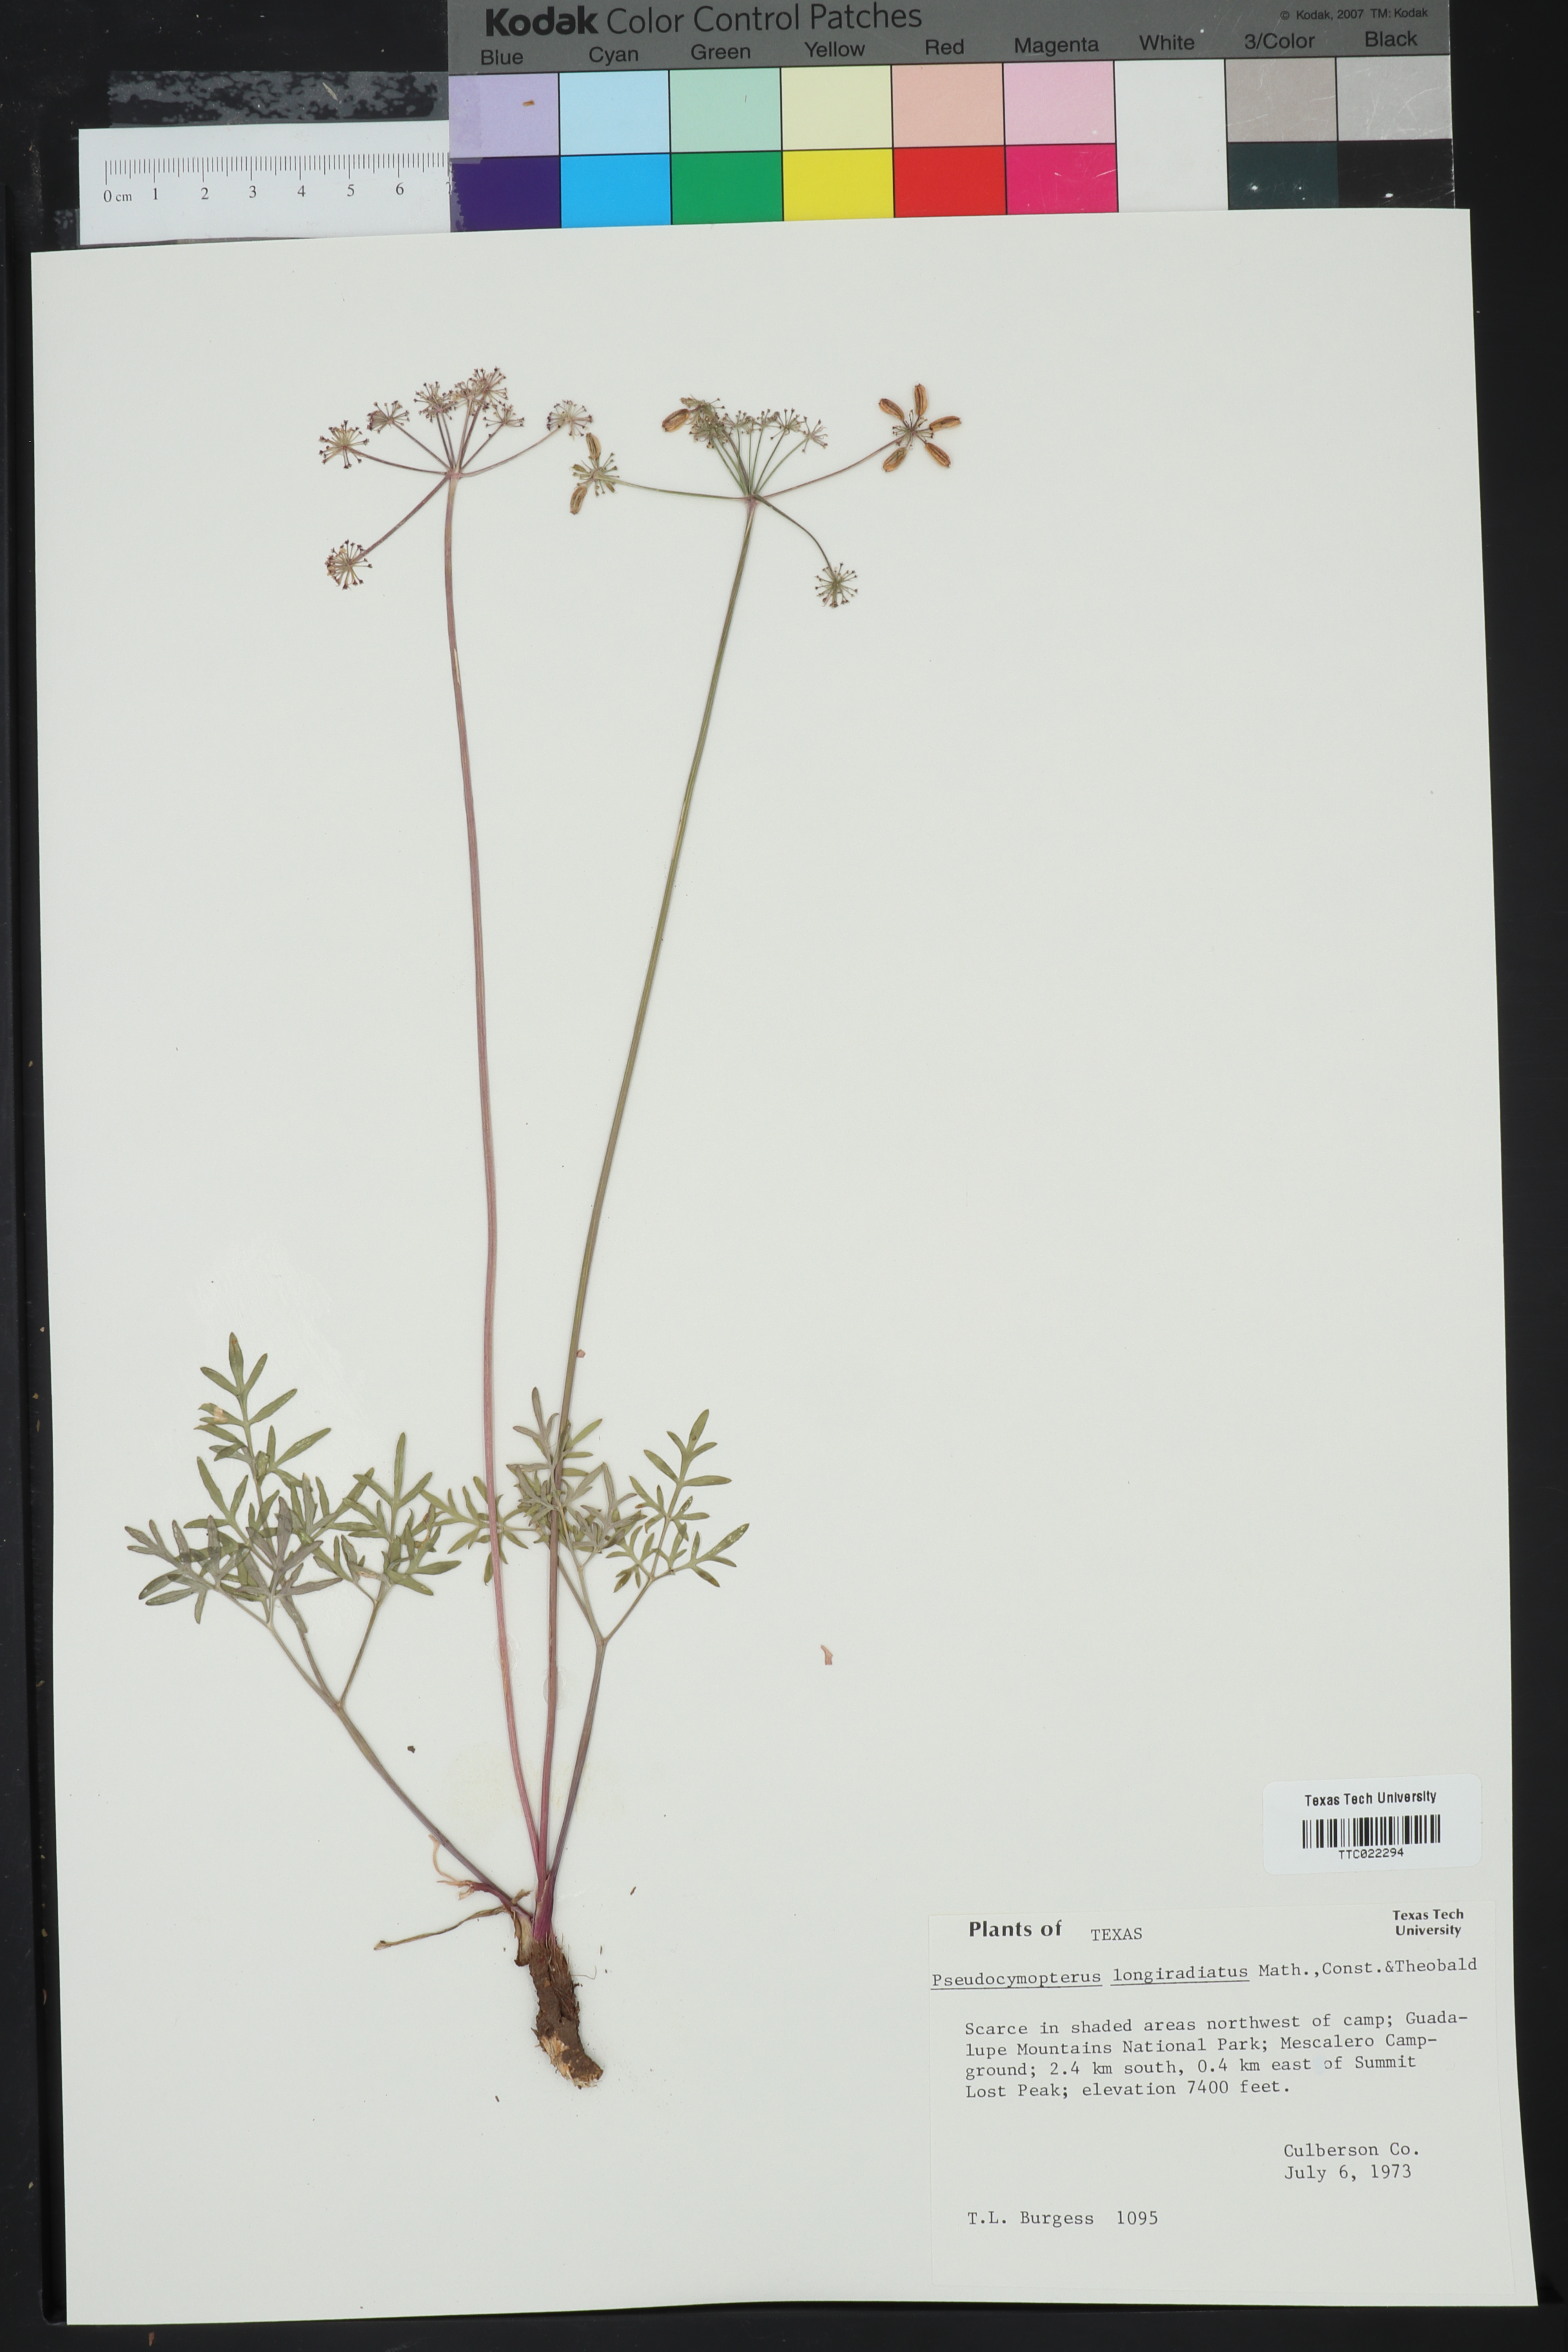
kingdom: Plantae
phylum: Tracheophyta
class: Magnoliopsida
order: Apiales
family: Apiaceae
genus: Pseudocymopterus
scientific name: Pseudocymopterus longiradiatus
